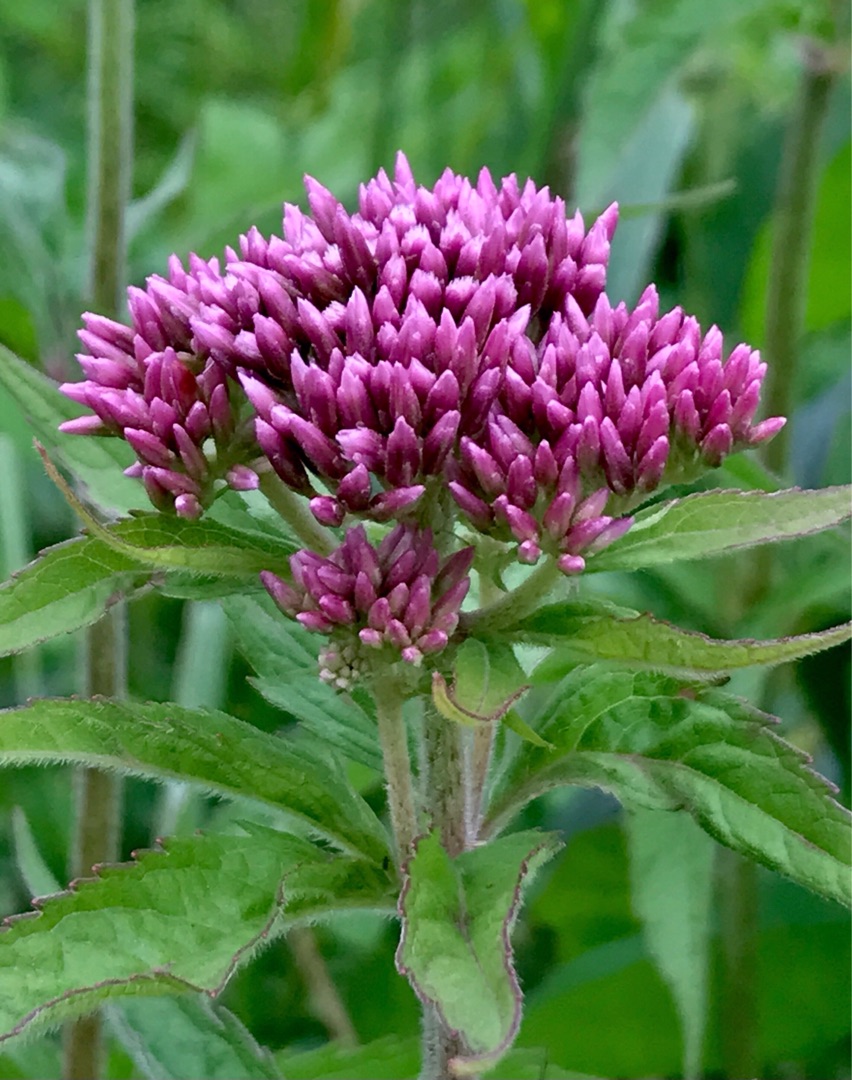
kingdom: Plantae
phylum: Tracheophyta
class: Magnoliopsida
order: Asterales
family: Asteraceae
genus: Eupatorium
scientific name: Eupatorium cannabinum
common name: Hjortetrøst
